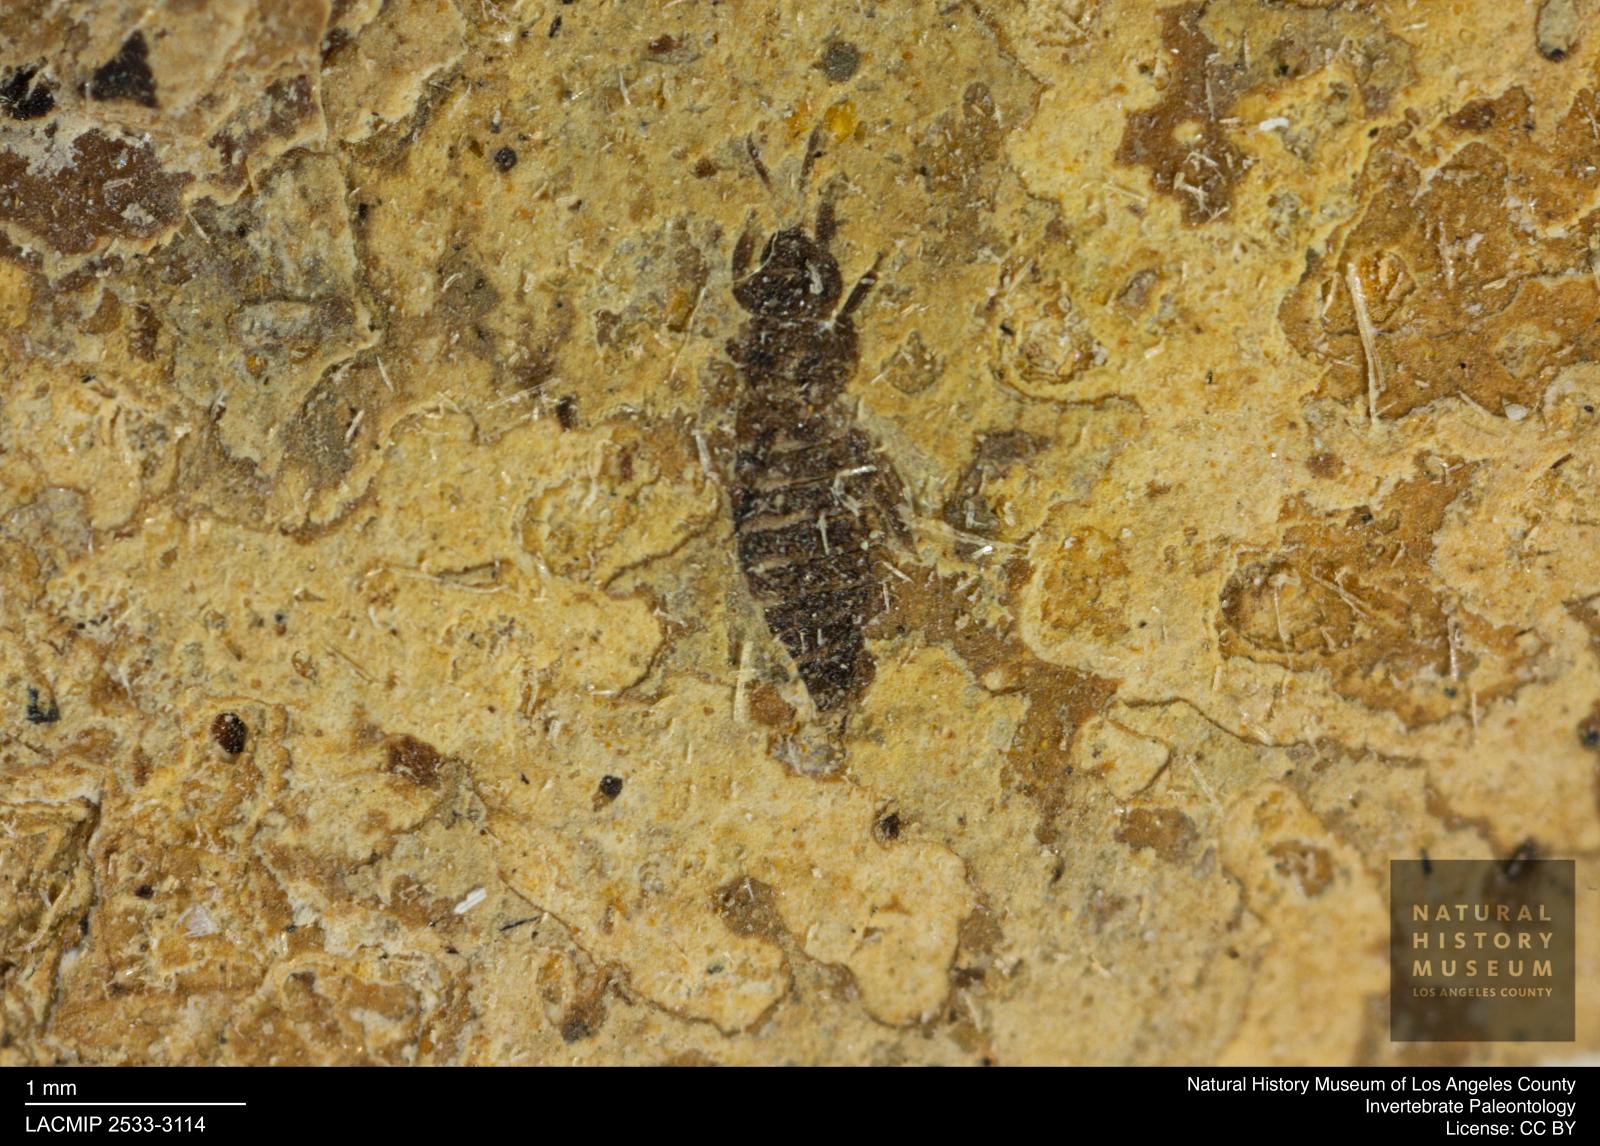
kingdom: Animalia
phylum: Arthropoda
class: Insecta
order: Thysanoptera
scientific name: Thysanoptera
